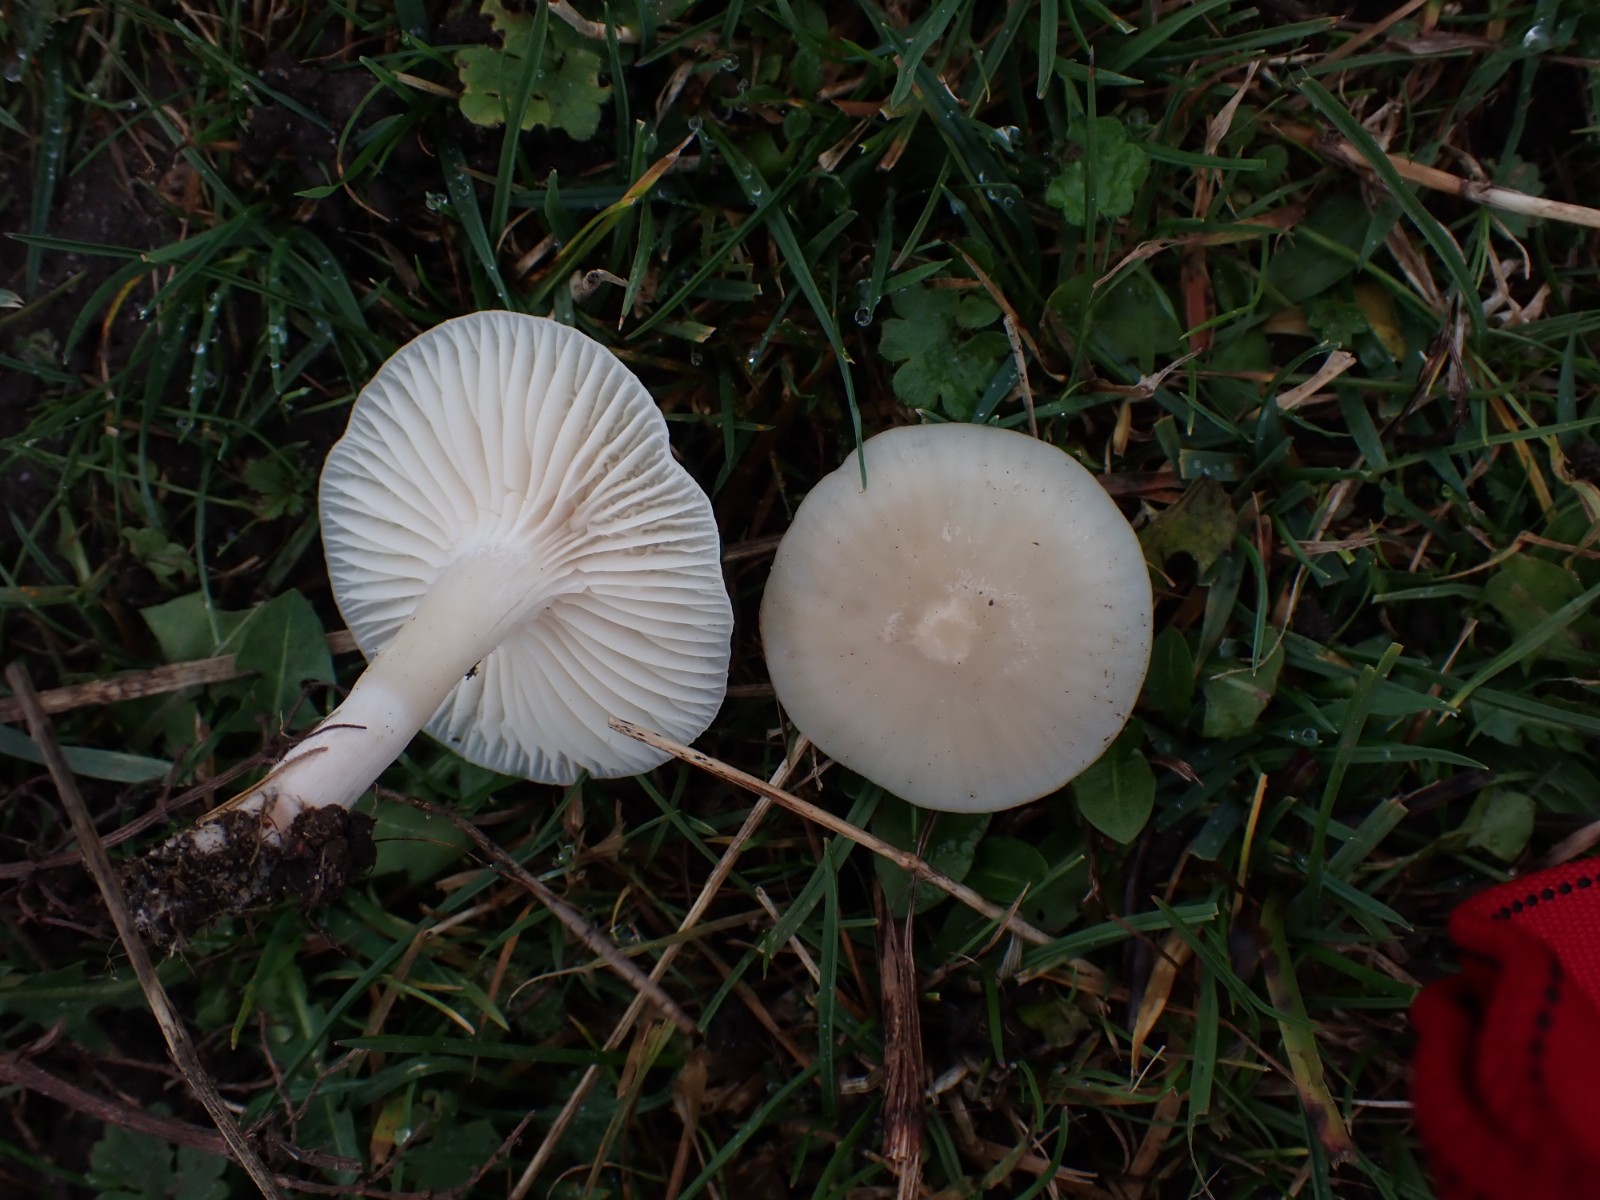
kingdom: Fungi
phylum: Basidiomycota
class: Agaricomycetes
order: Agaricales
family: Hygrophoraceae
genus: Cuphophyllus
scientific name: Cuphophyllus virgineus
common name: snehvid vokshat
